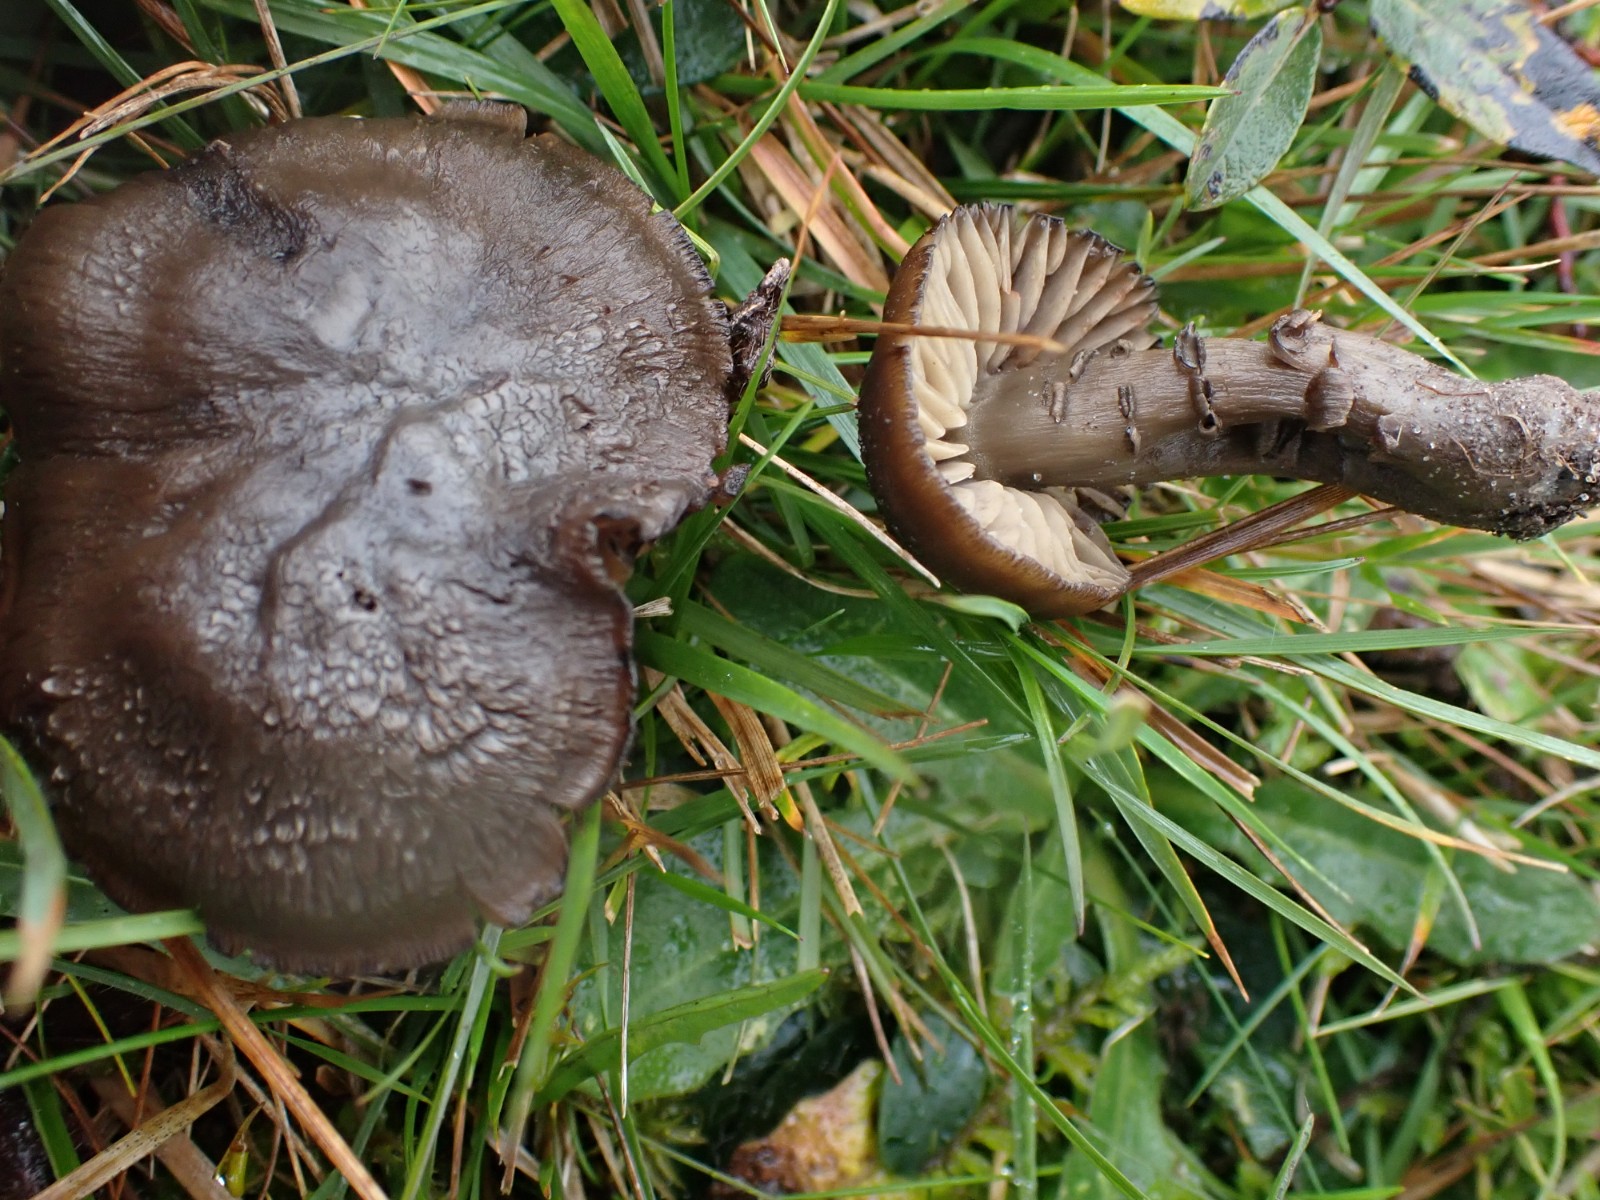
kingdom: Fungi
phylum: Basidiomycota
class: Agaricomycetes
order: Agaricales
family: Hygrophoraceae
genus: Neohygrocybe
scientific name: Neohygrocybe ovina
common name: rødmende vokshat
